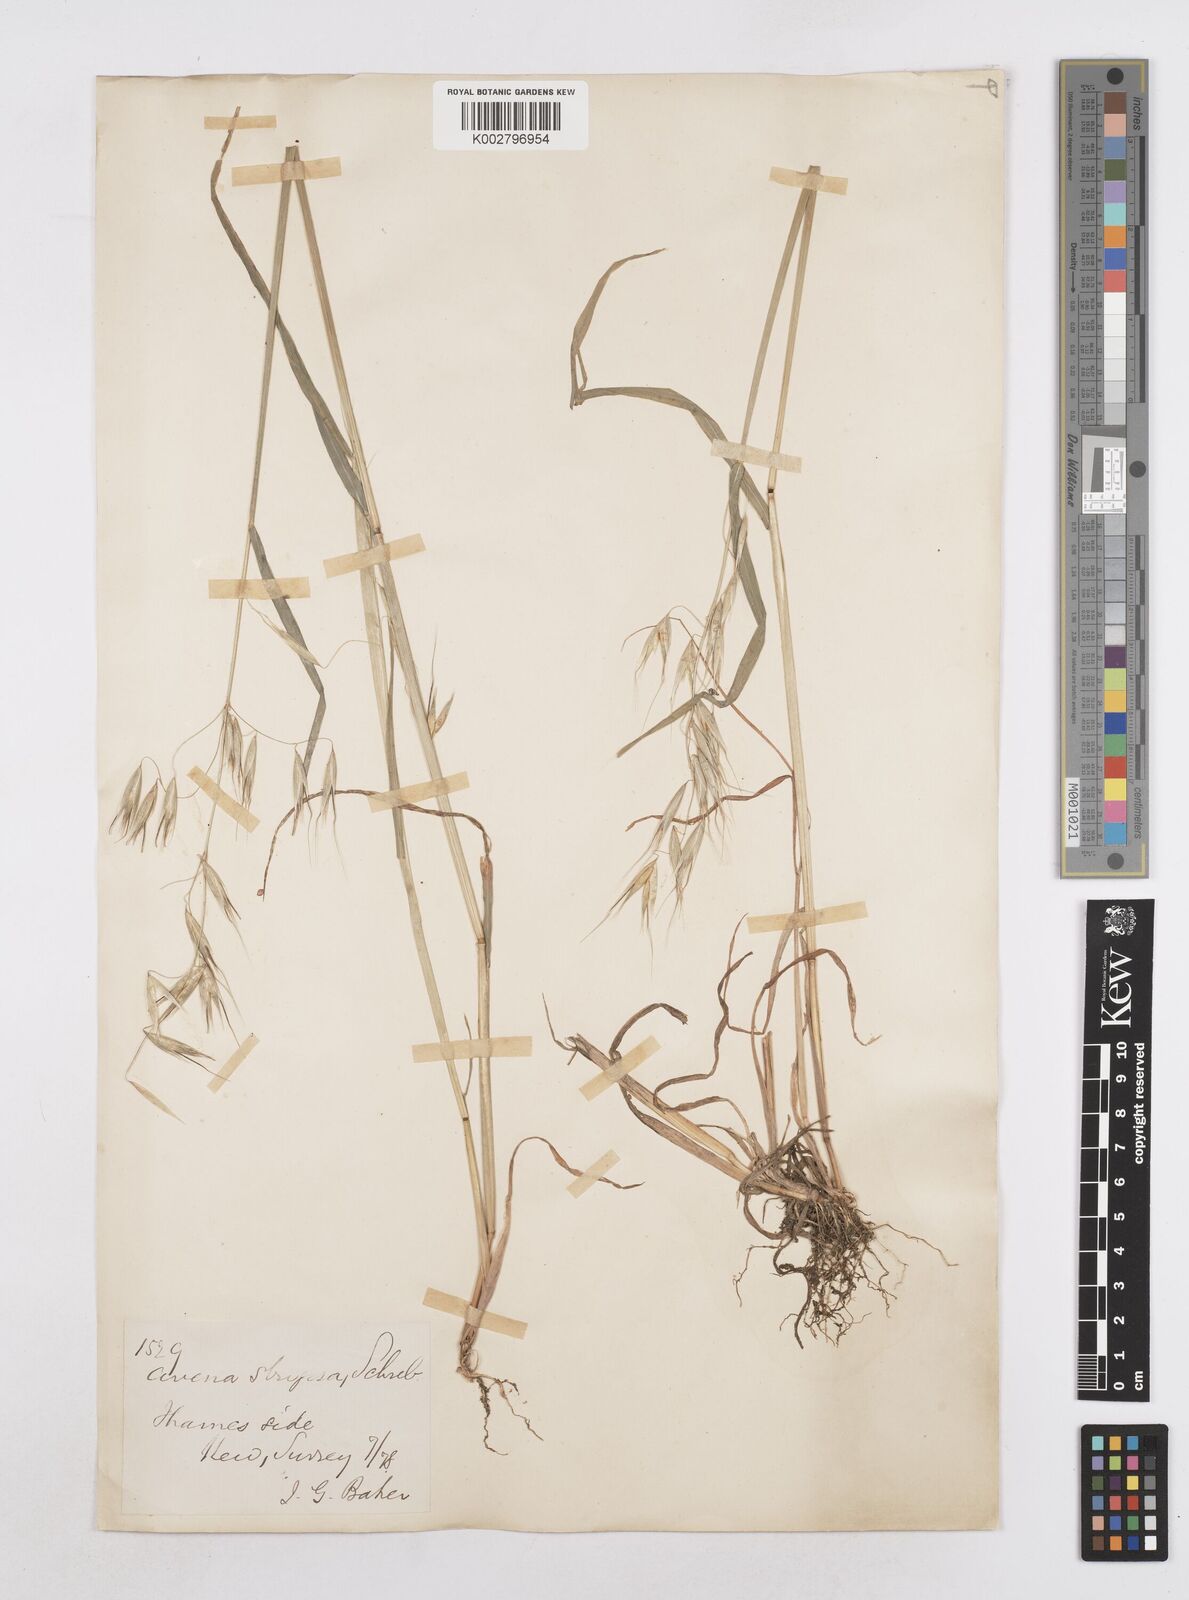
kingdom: Plantae
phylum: Tracheophyta
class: Liliopsida
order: Poales
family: Poaceae
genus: Avena
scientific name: Avena strigosa
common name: Bristle oat
